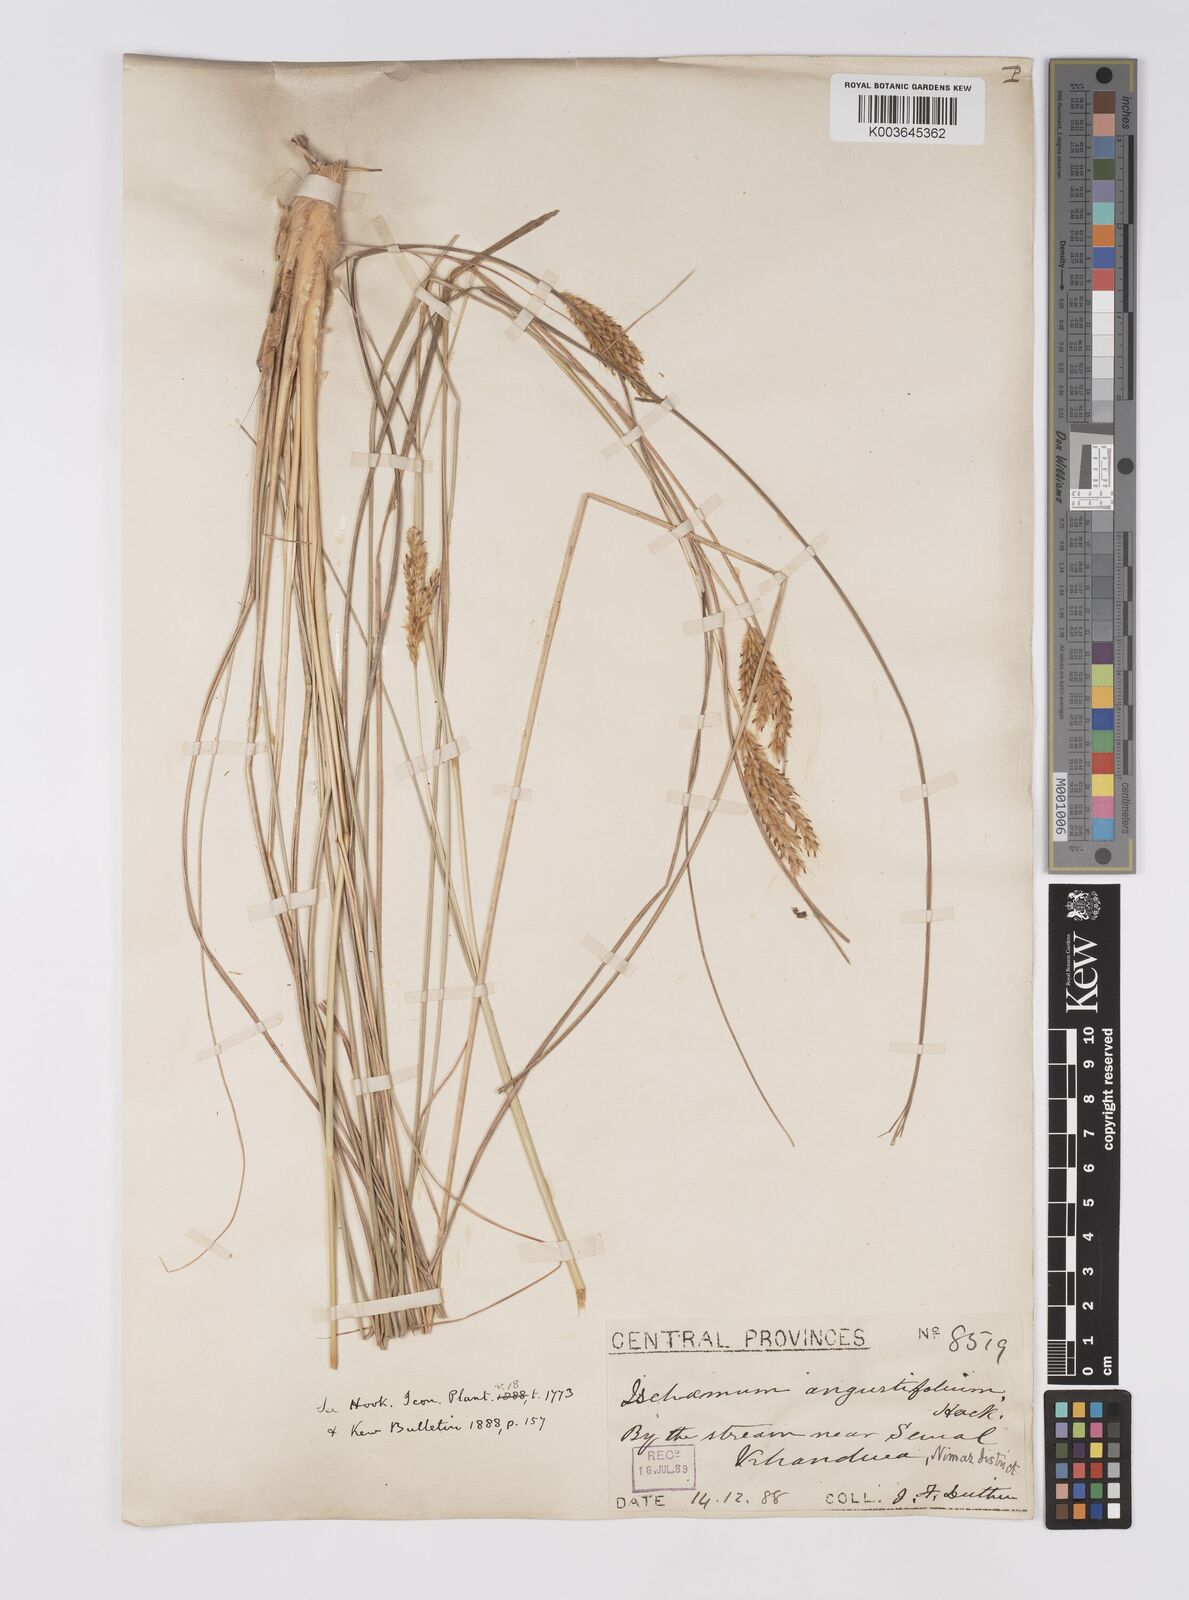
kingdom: Plantae
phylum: Tracheophyta
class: Liliopsida
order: Poales
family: Poaceae
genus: Eulaliopsis
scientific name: Eulaliopsis binata
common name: Baib grass
